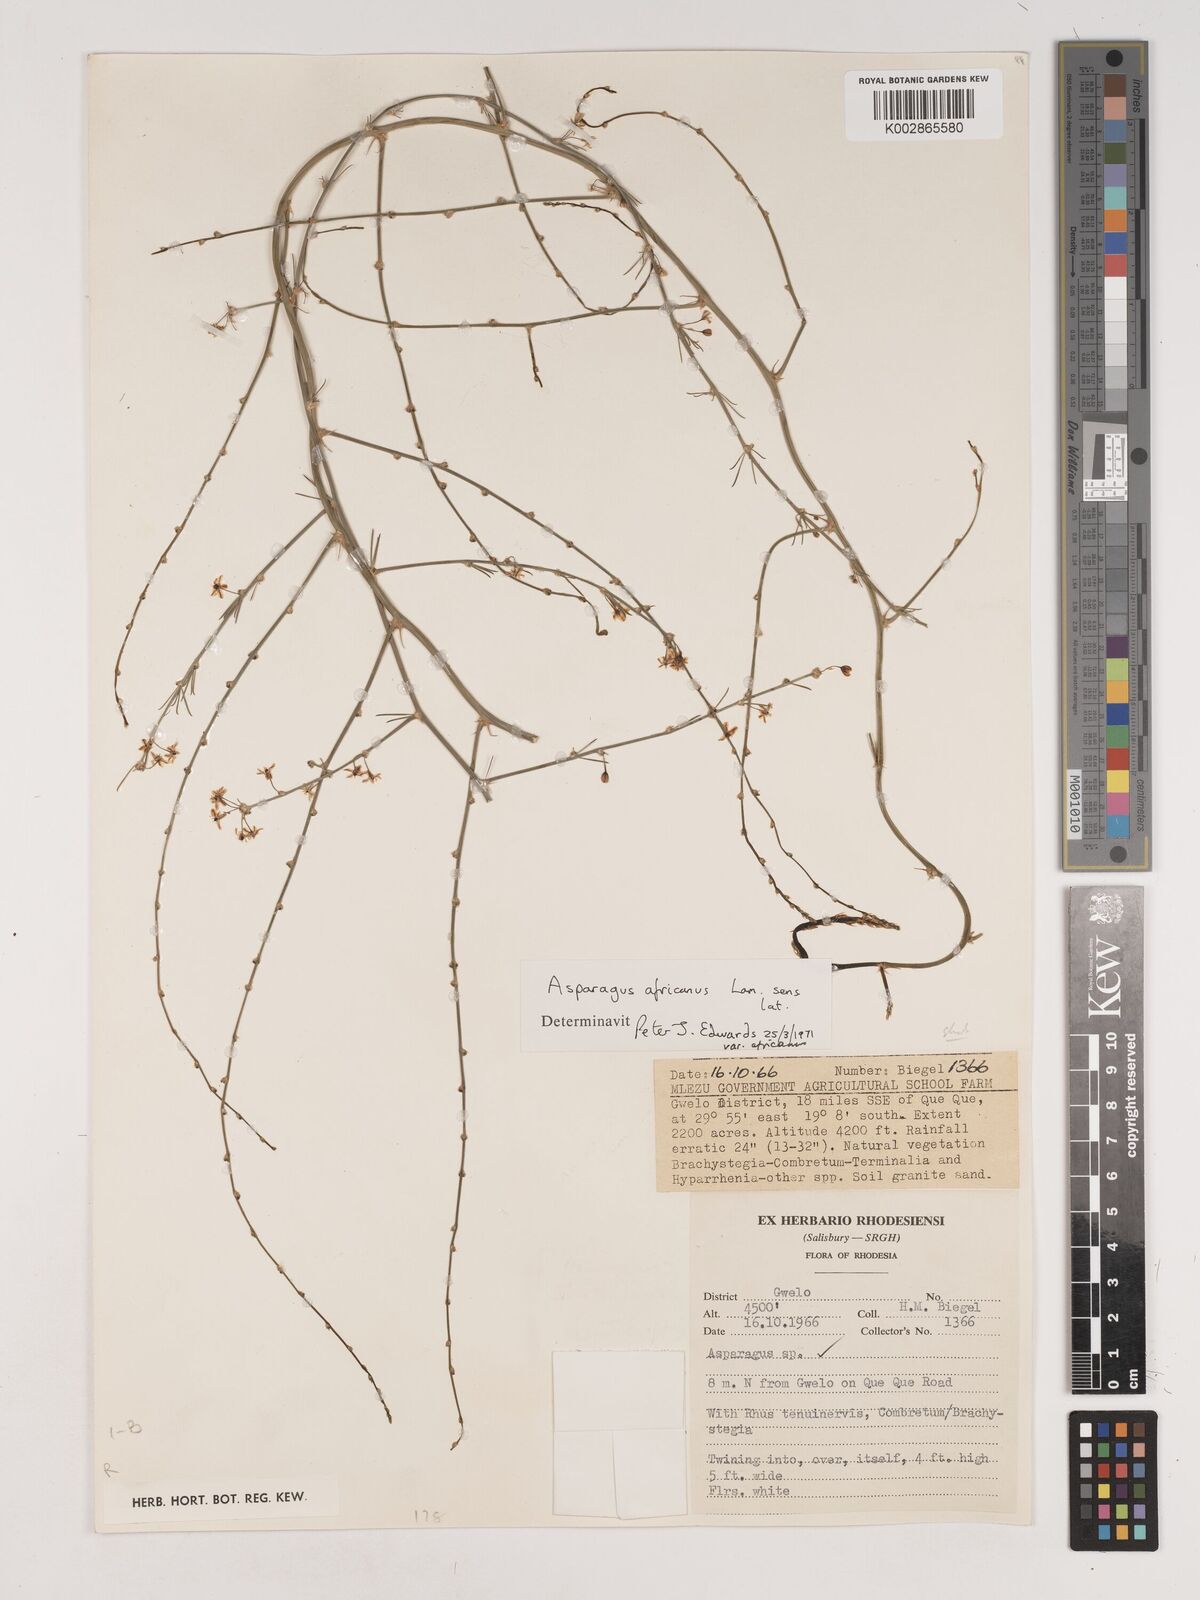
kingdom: Plantae
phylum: Tracheophyta
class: Liliopsida
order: Asparagales
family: Asparagaceae
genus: Asparagus
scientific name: Asparagus africanus
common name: Asparagus-fern
